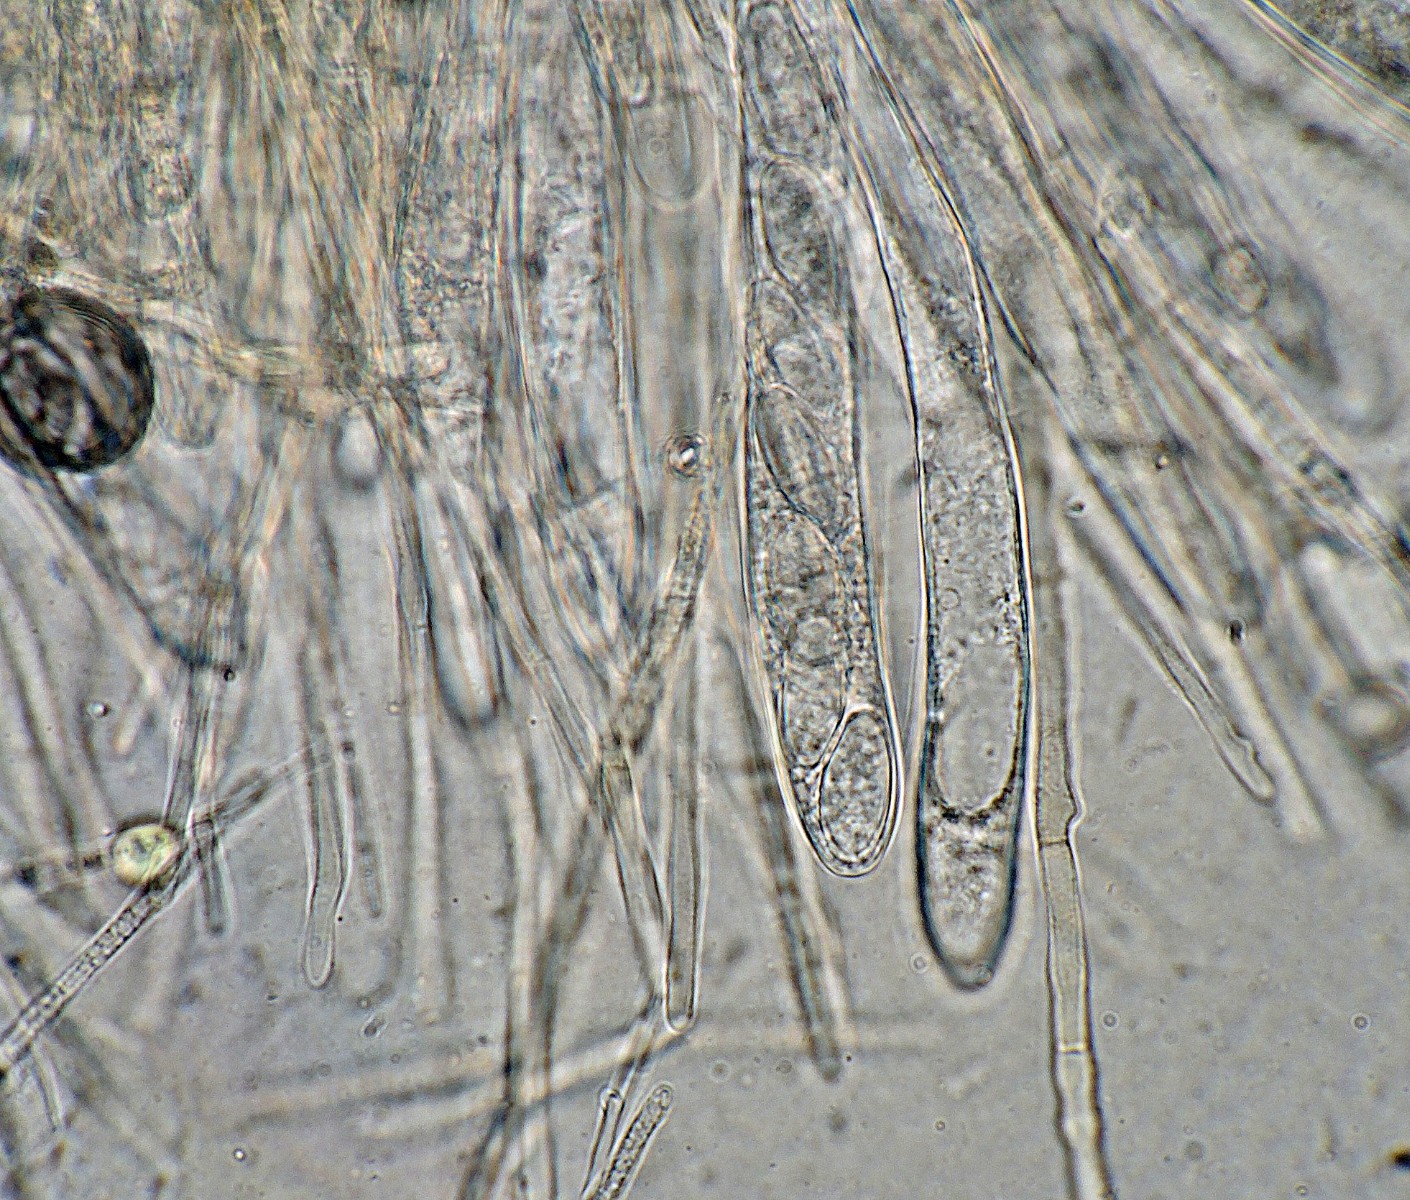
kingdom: Fungi
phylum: Ascomycota
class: Leotiomycetes
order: Helotiales
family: Lachnaceae
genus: Lachnellula
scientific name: Lachnellula occidentalis
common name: Larch disco
